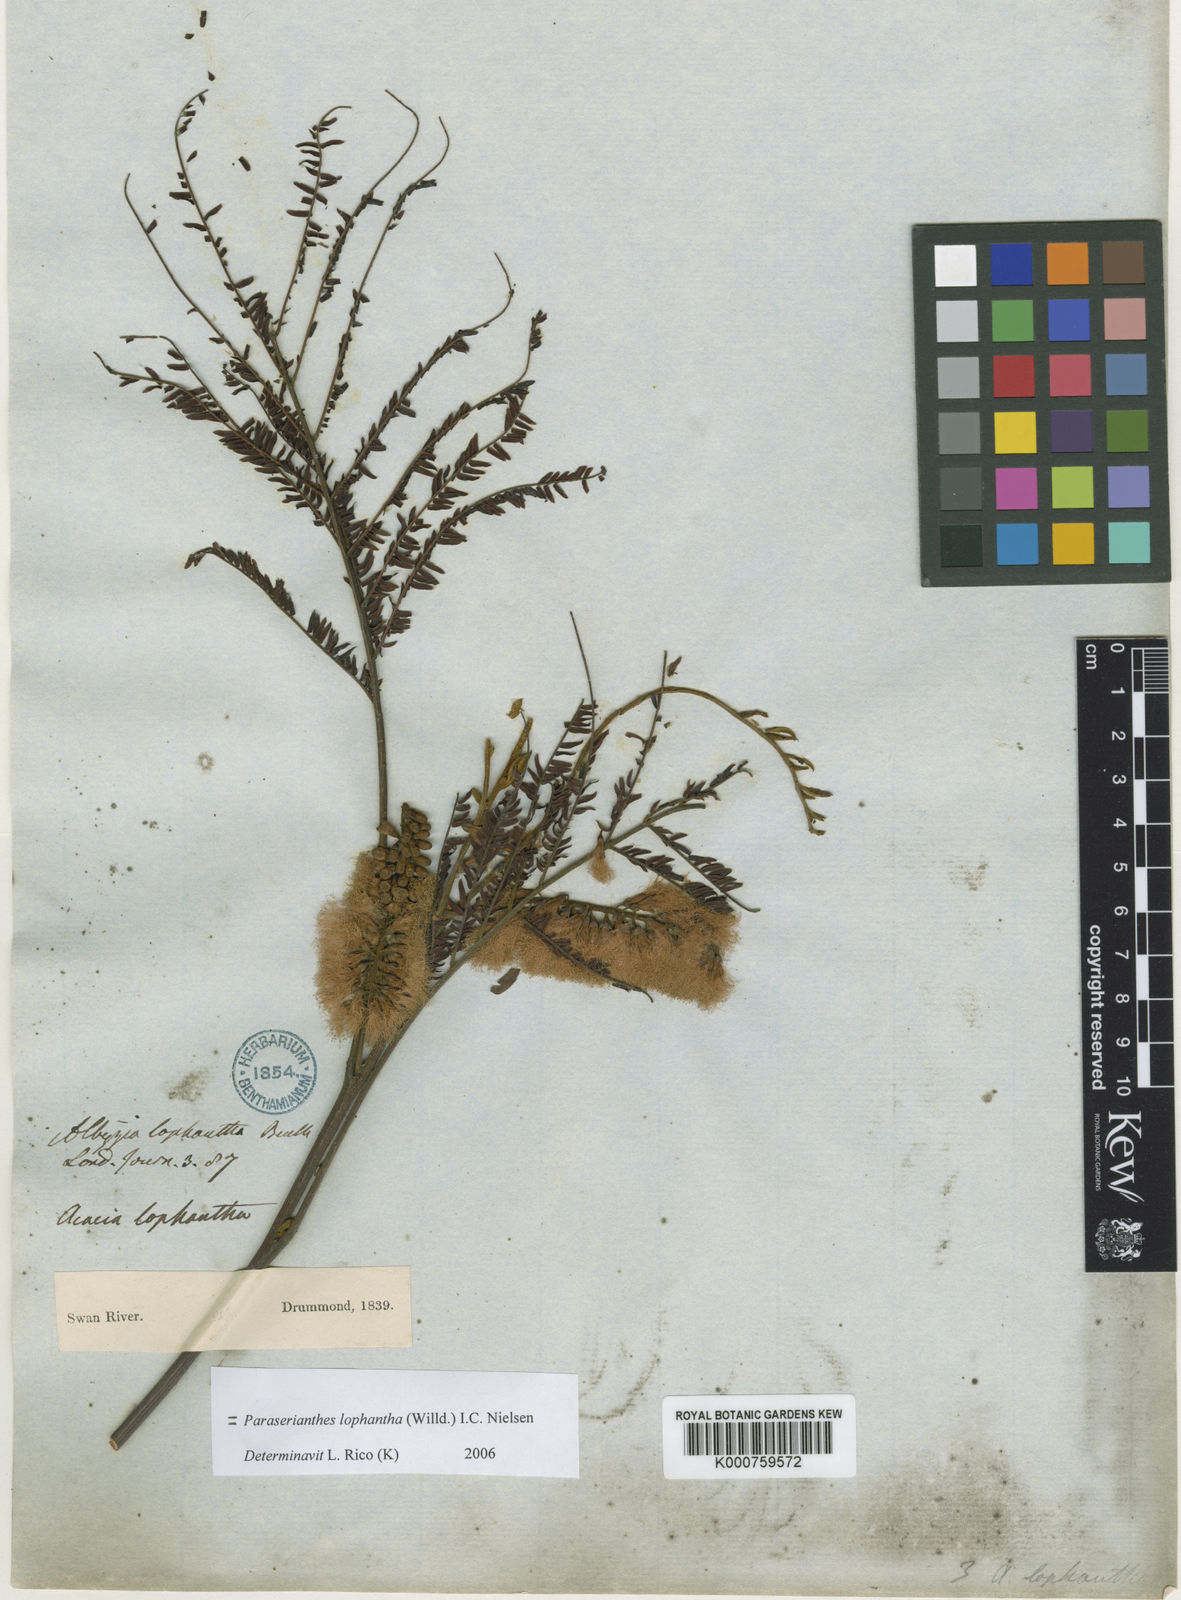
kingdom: Plantae
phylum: Tracheophyta
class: Magnoliopsida
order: Fabales
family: Fabaceae
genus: Paraserianthes
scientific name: Paraserianthes lophantha
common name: Plume albizia
